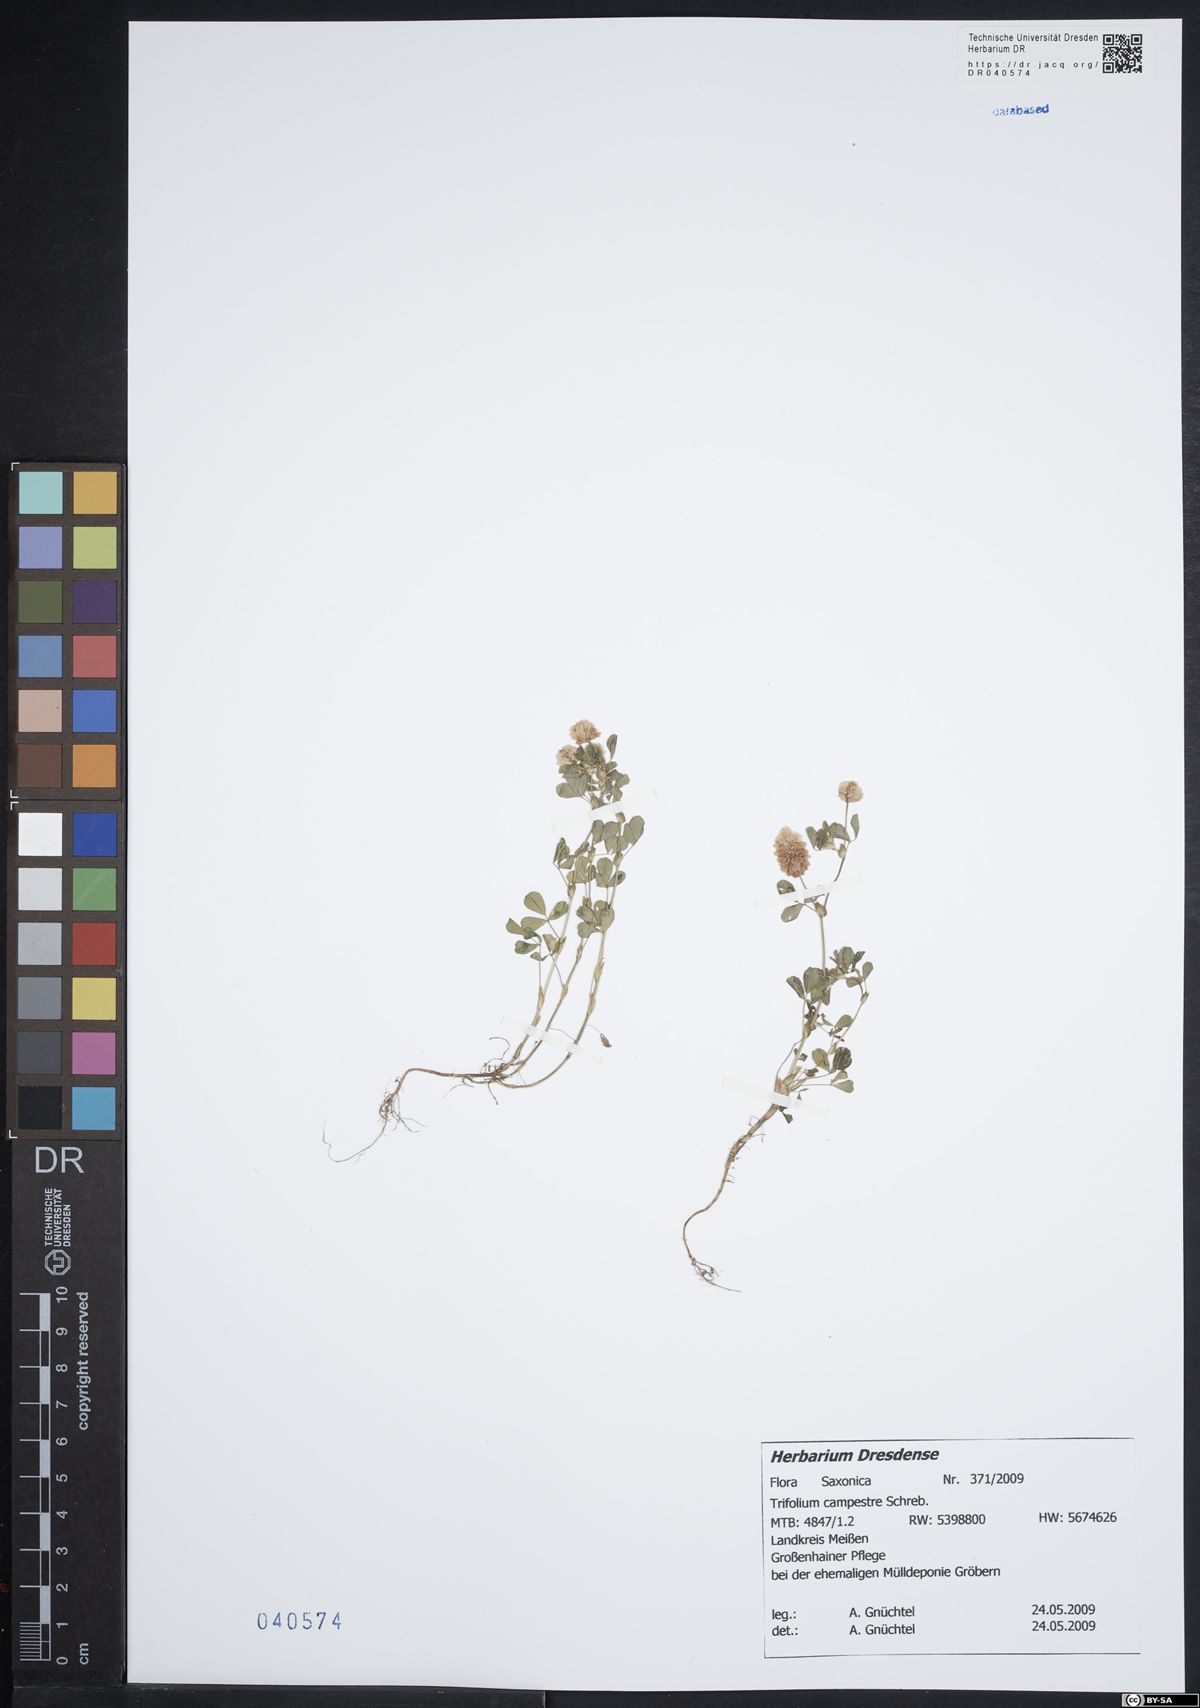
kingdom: Plantae
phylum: Tracheophyta
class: Magnoliopsida
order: Fabales
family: Fabaceae
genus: Trifolium
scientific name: Trifolium campestre
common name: Field clover
